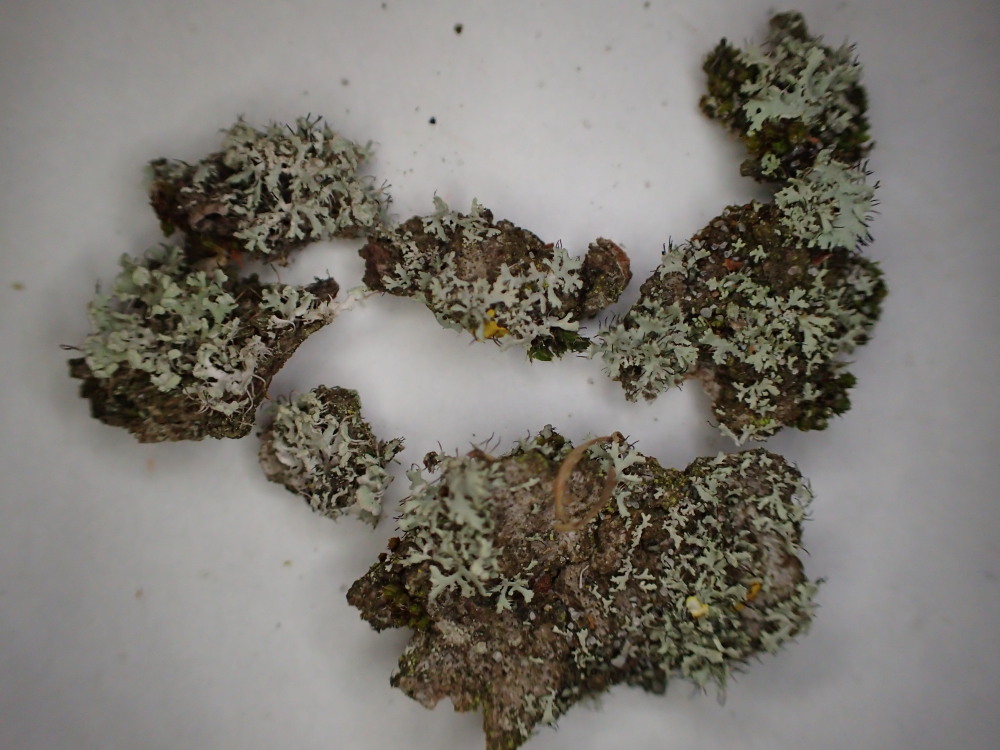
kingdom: Fungi
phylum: Ascomycota
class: Lecanoromycetes
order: Caliciales
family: Physciaceae
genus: Physcia
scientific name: Physcia tenella
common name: spæd rosetlav
